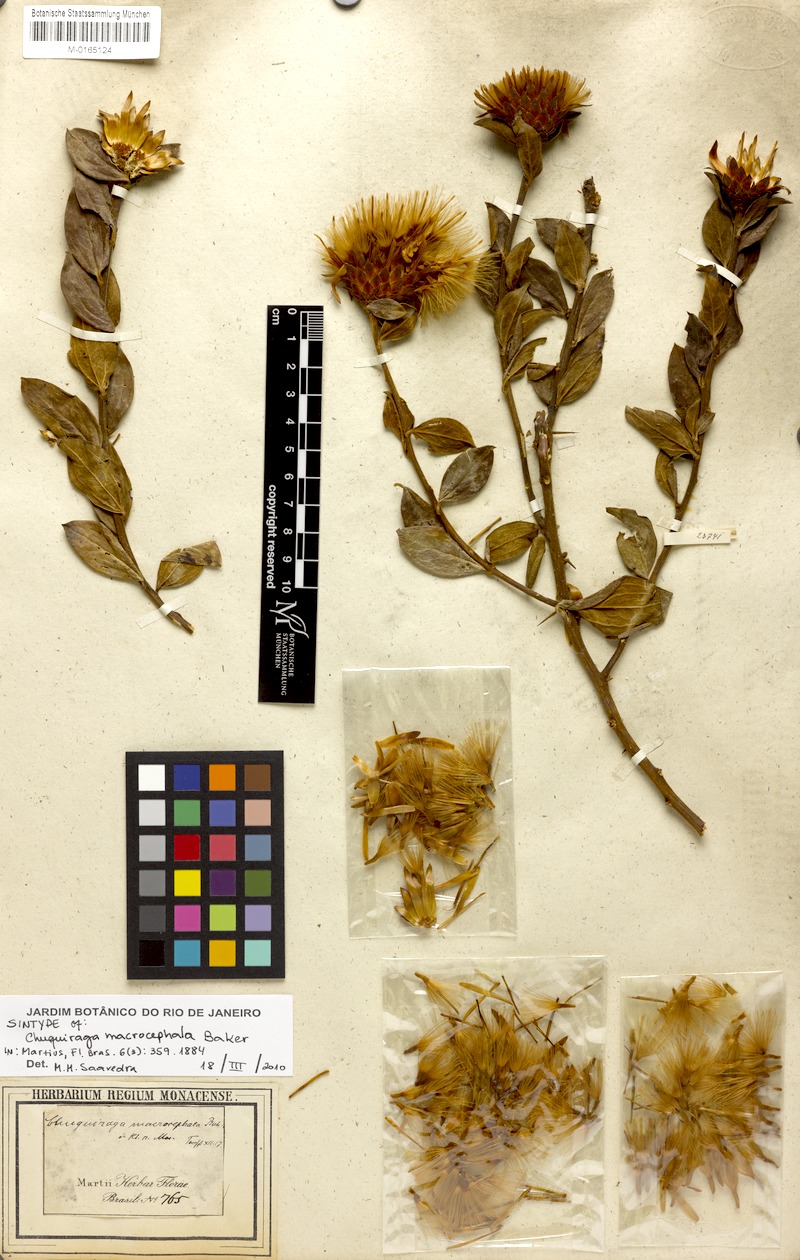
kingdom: Plantae
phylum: Tracheophyta
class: Magnoliopsida
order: Asterales
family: Asteraceae
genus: Dasyphyllum
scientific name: Dasyphyllum velutinum
